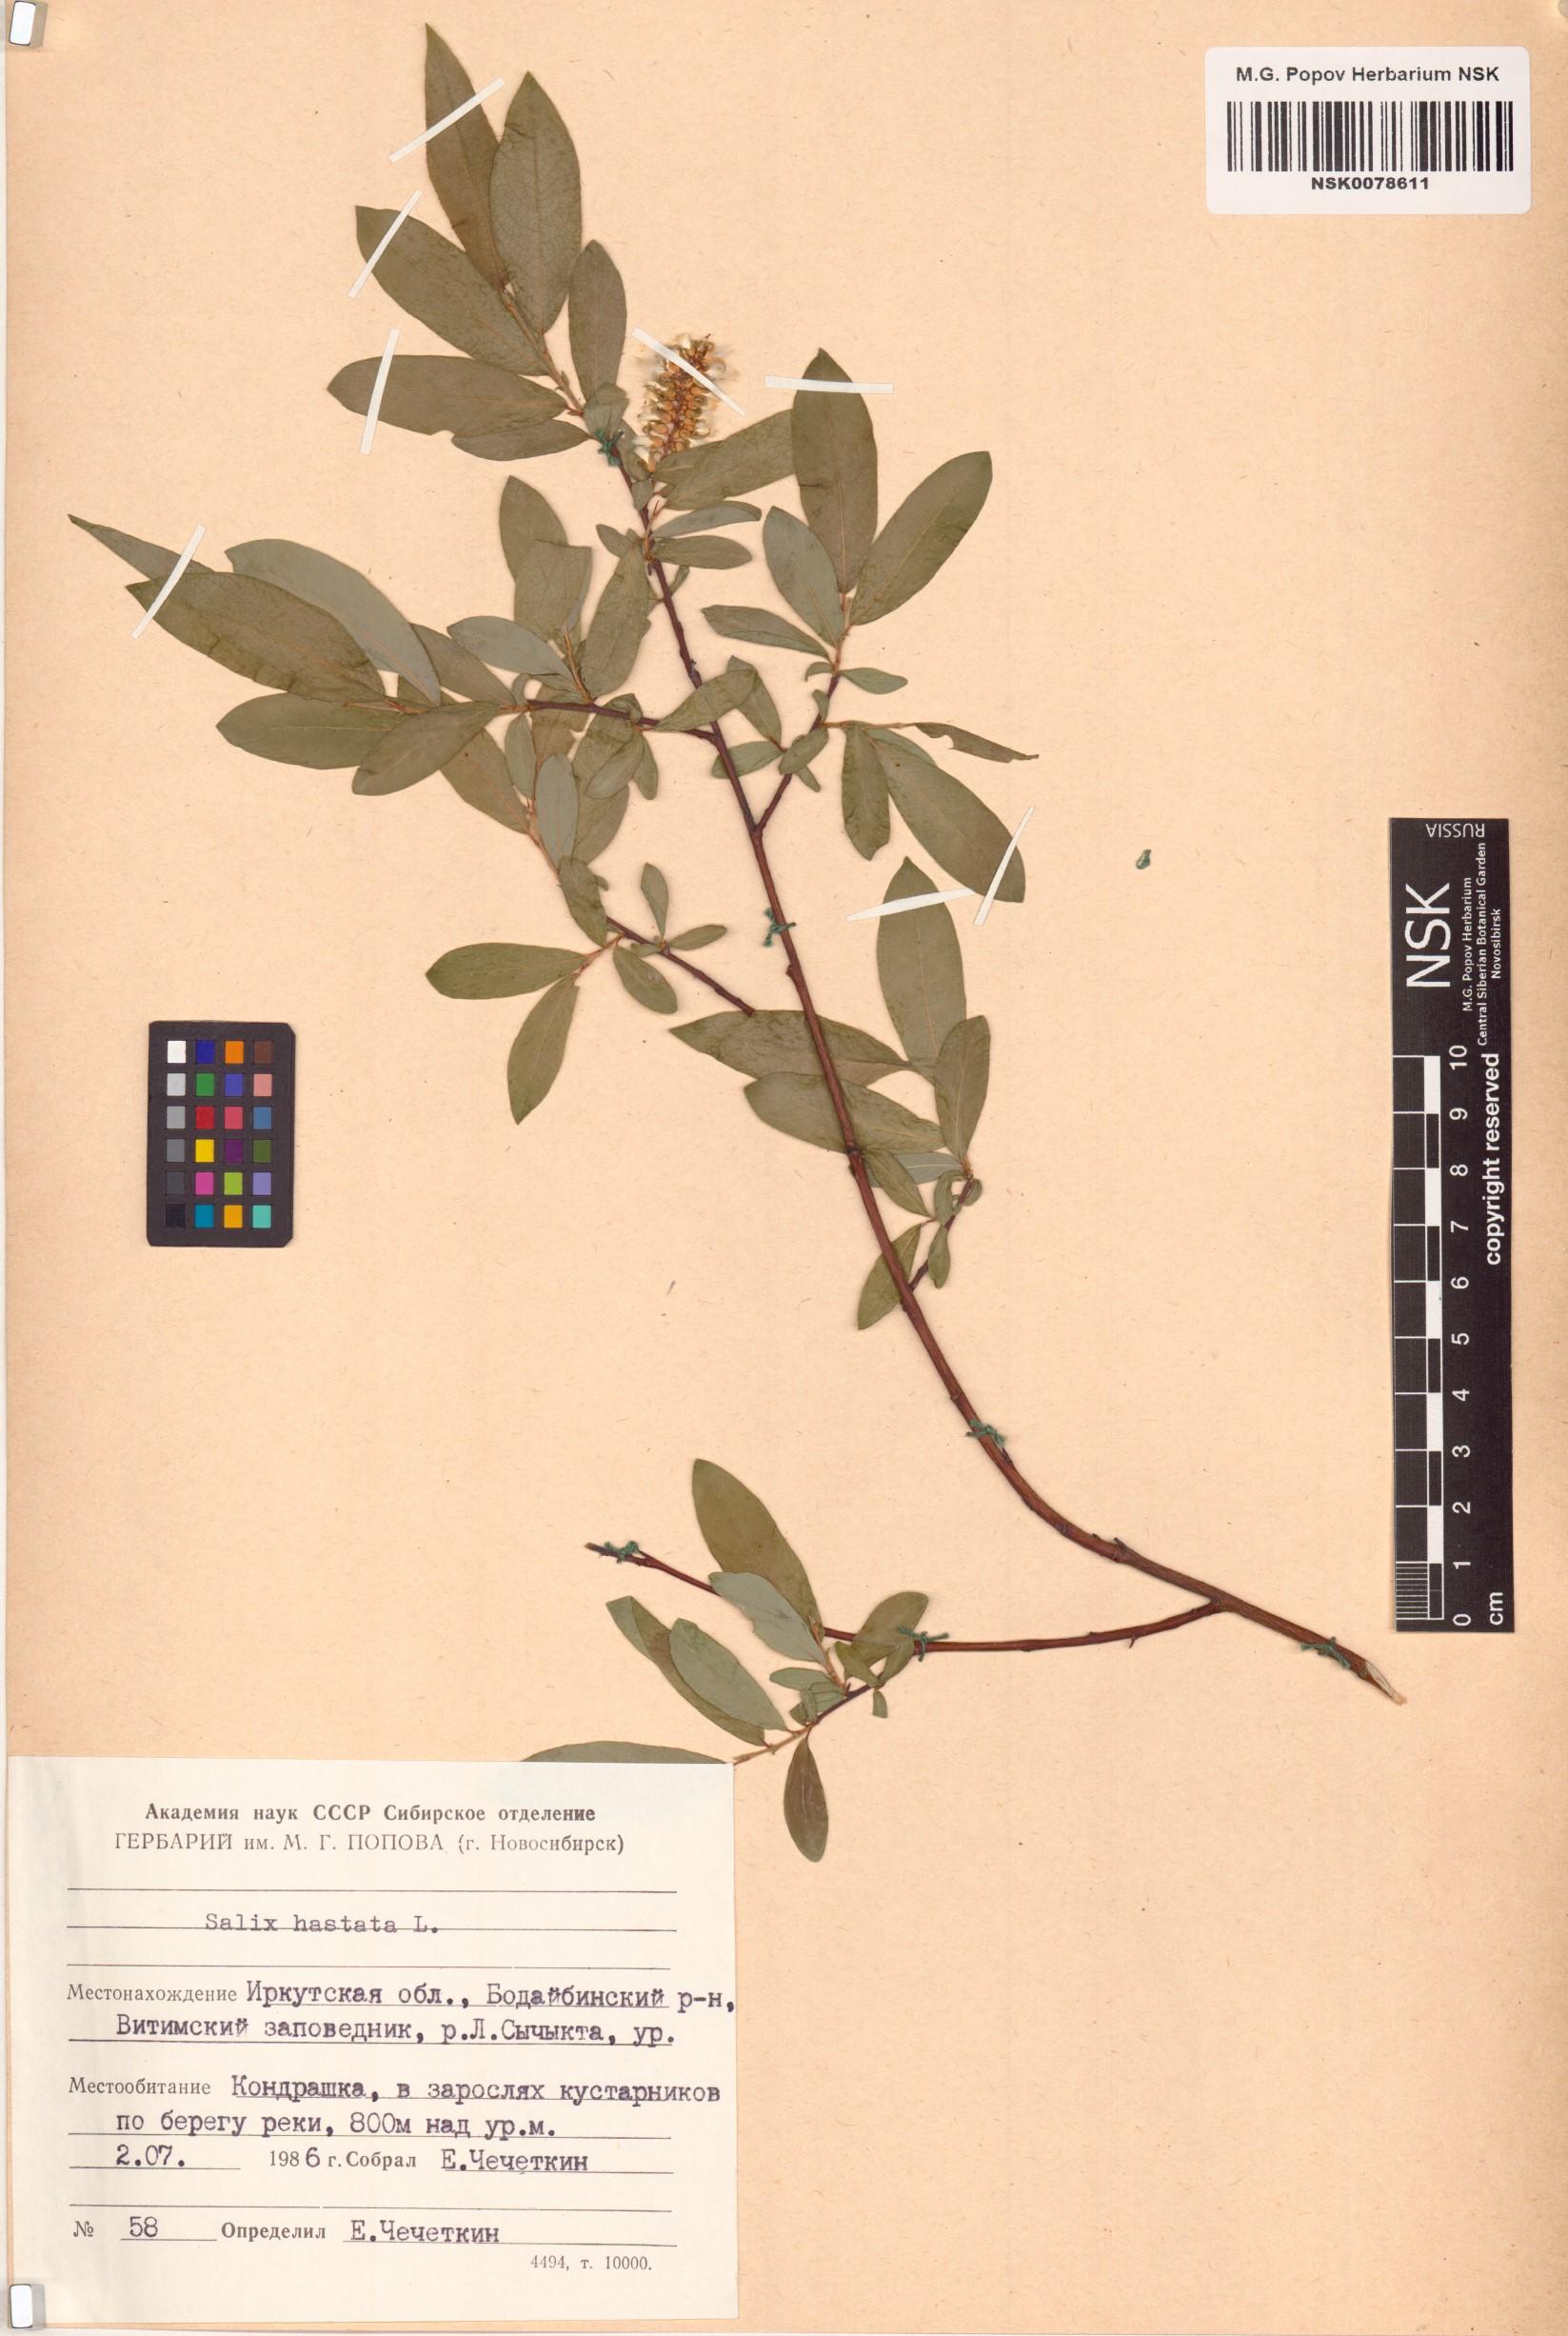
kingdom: Plantae
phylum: Tracheophyta
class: Magnoliopsida
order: Malpighiales
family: Salicaceae
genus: Salix
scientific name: Salix hastata
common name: Halberd willow
